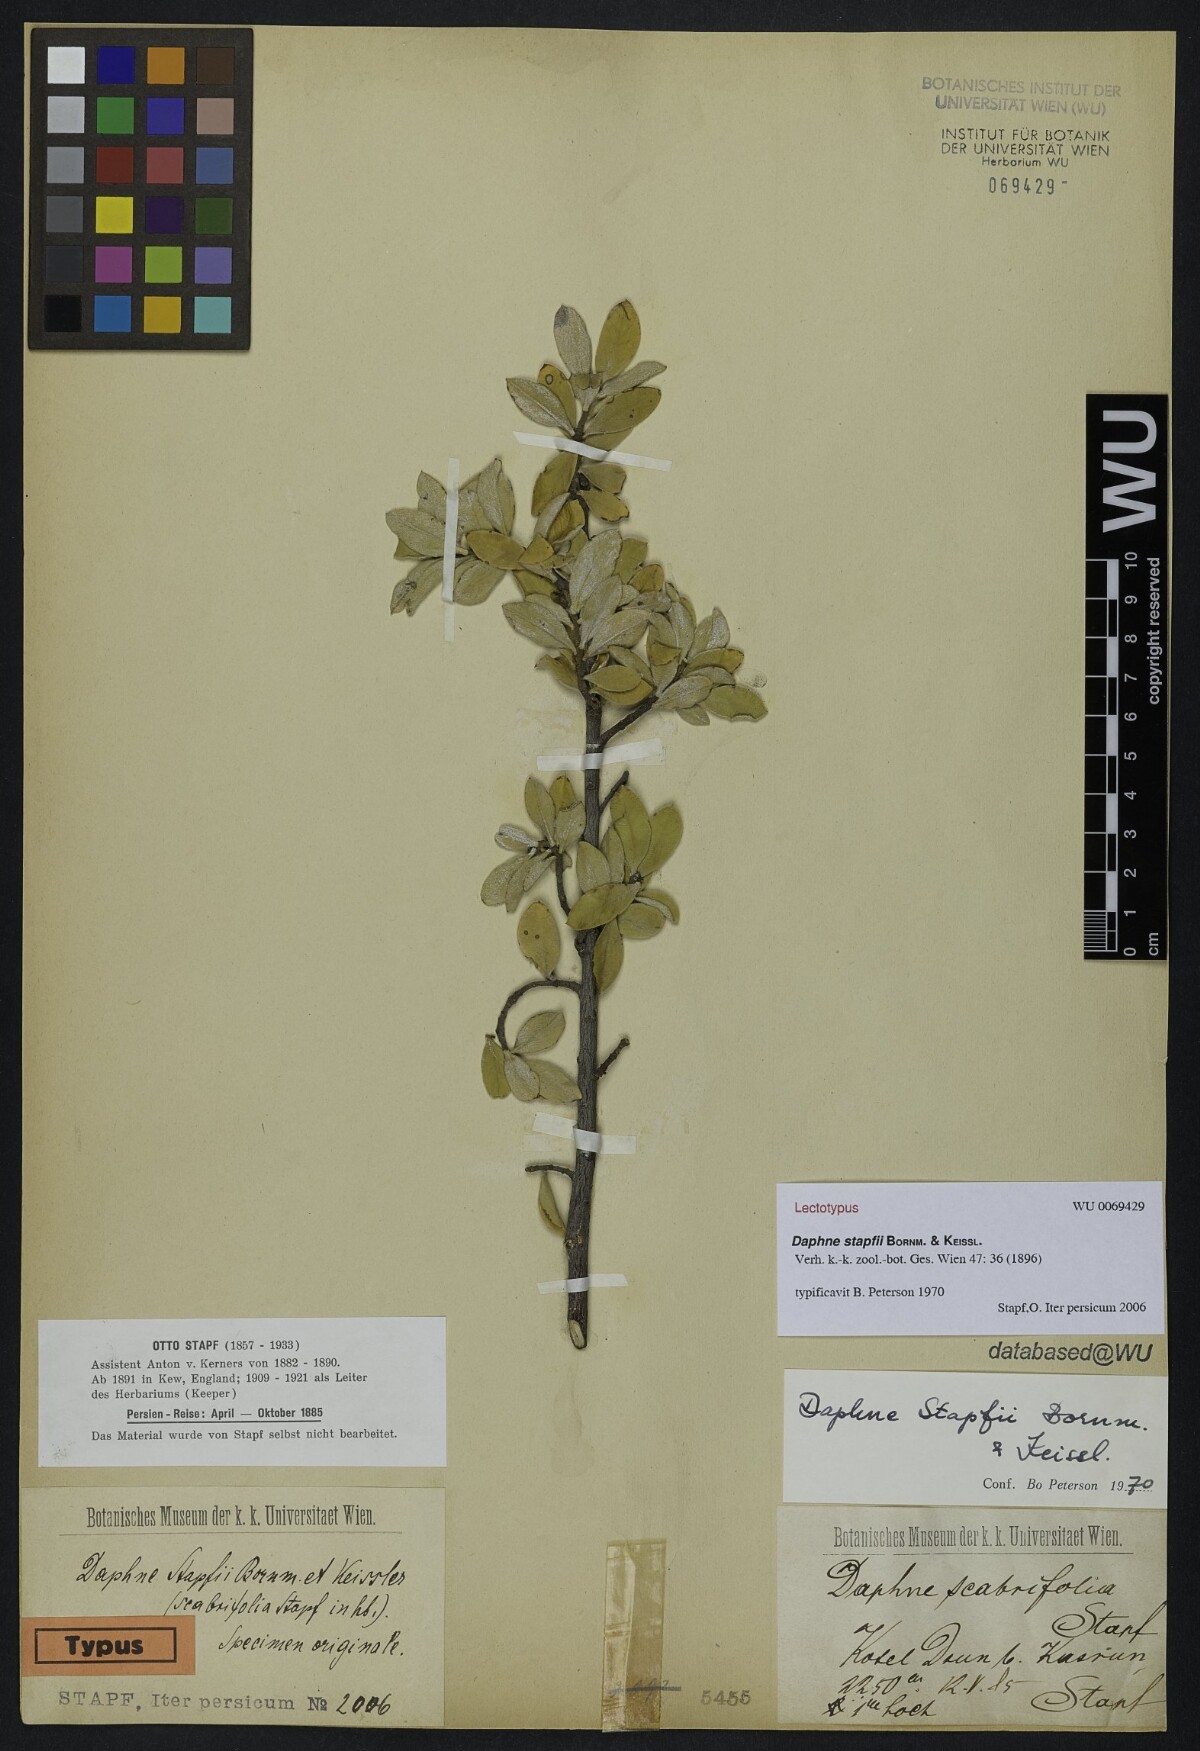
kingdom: Plantae
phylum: Tracheophyta
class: Magnoliopsida
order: Malvales
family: Thymelaeaceae
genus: Daphne
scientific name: Daphne stapfii
